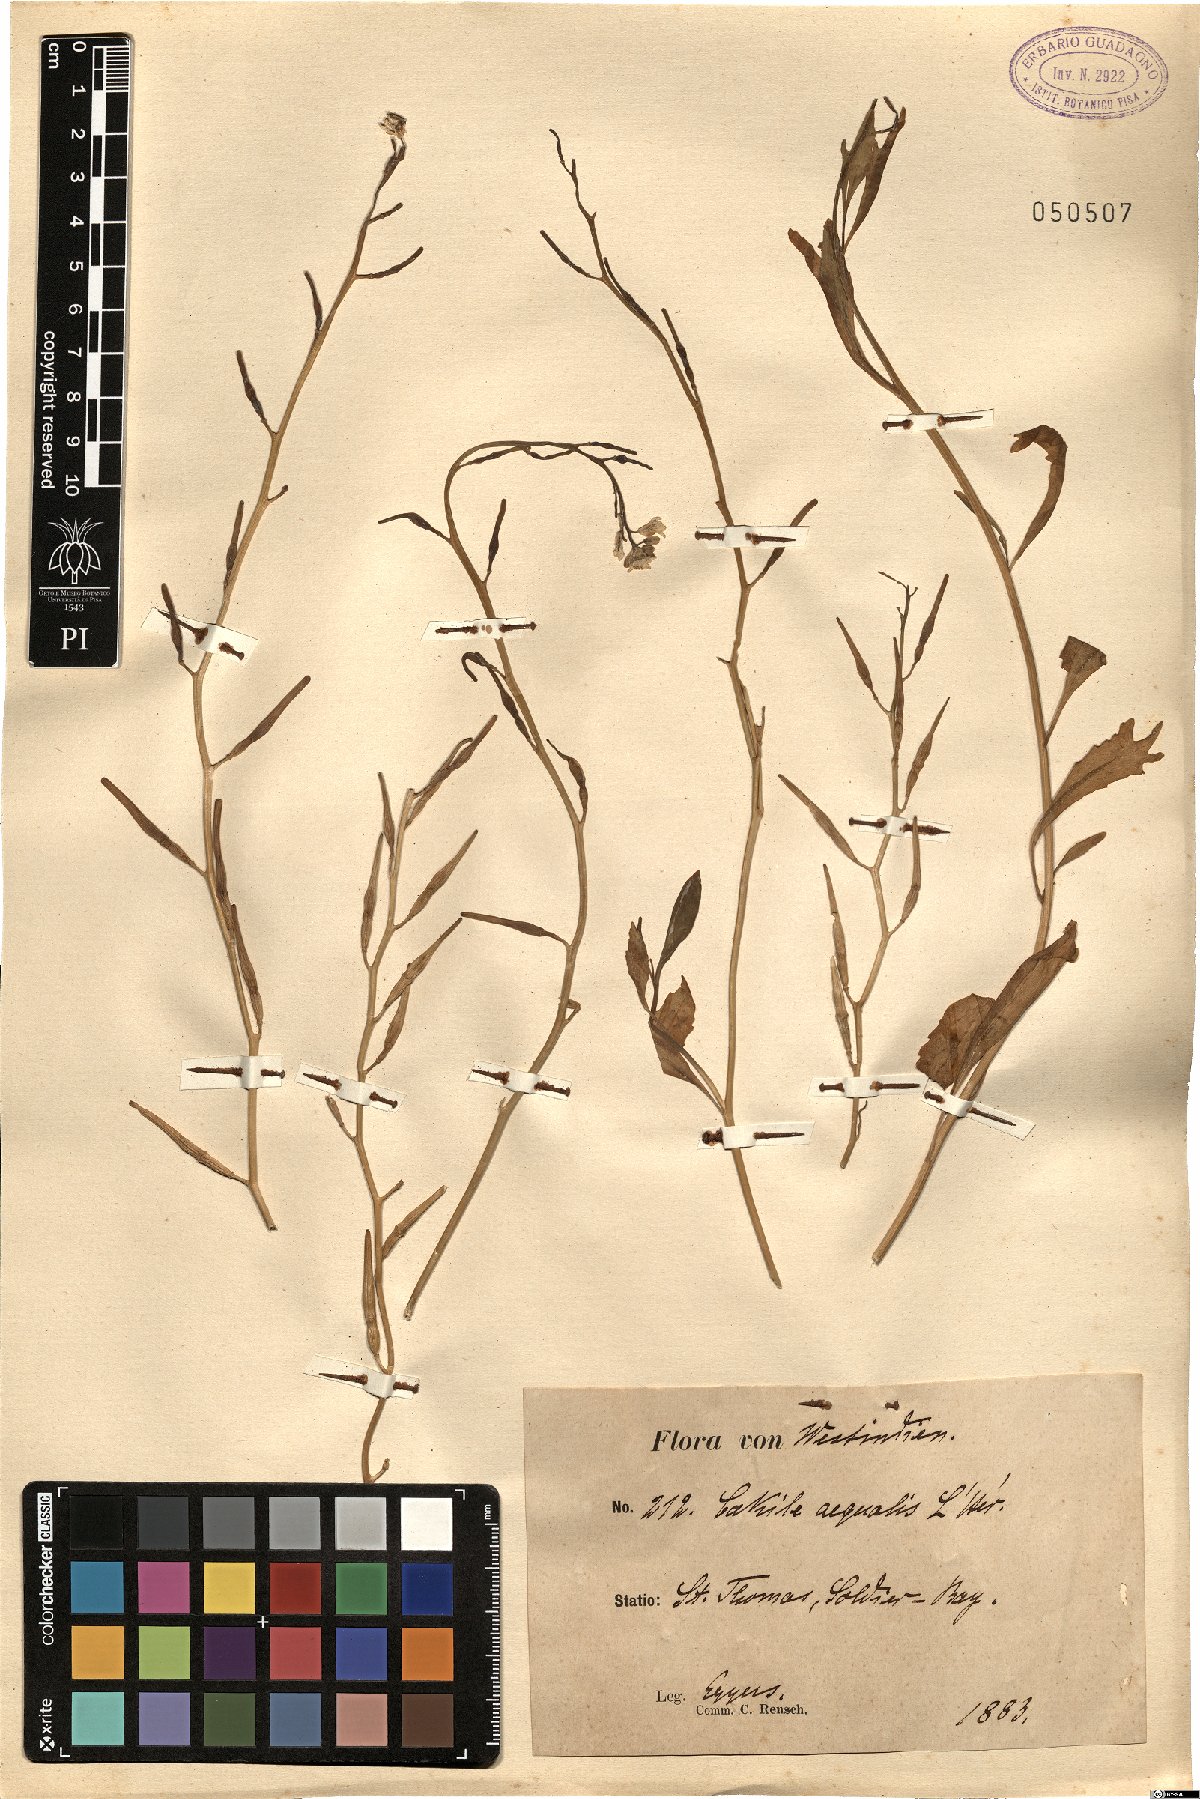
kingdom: Plantae
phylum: Tracheophyta
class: Magnoliopsida
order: Brassicales
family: Brassicaceae
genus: Cakile
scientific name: Cakile
